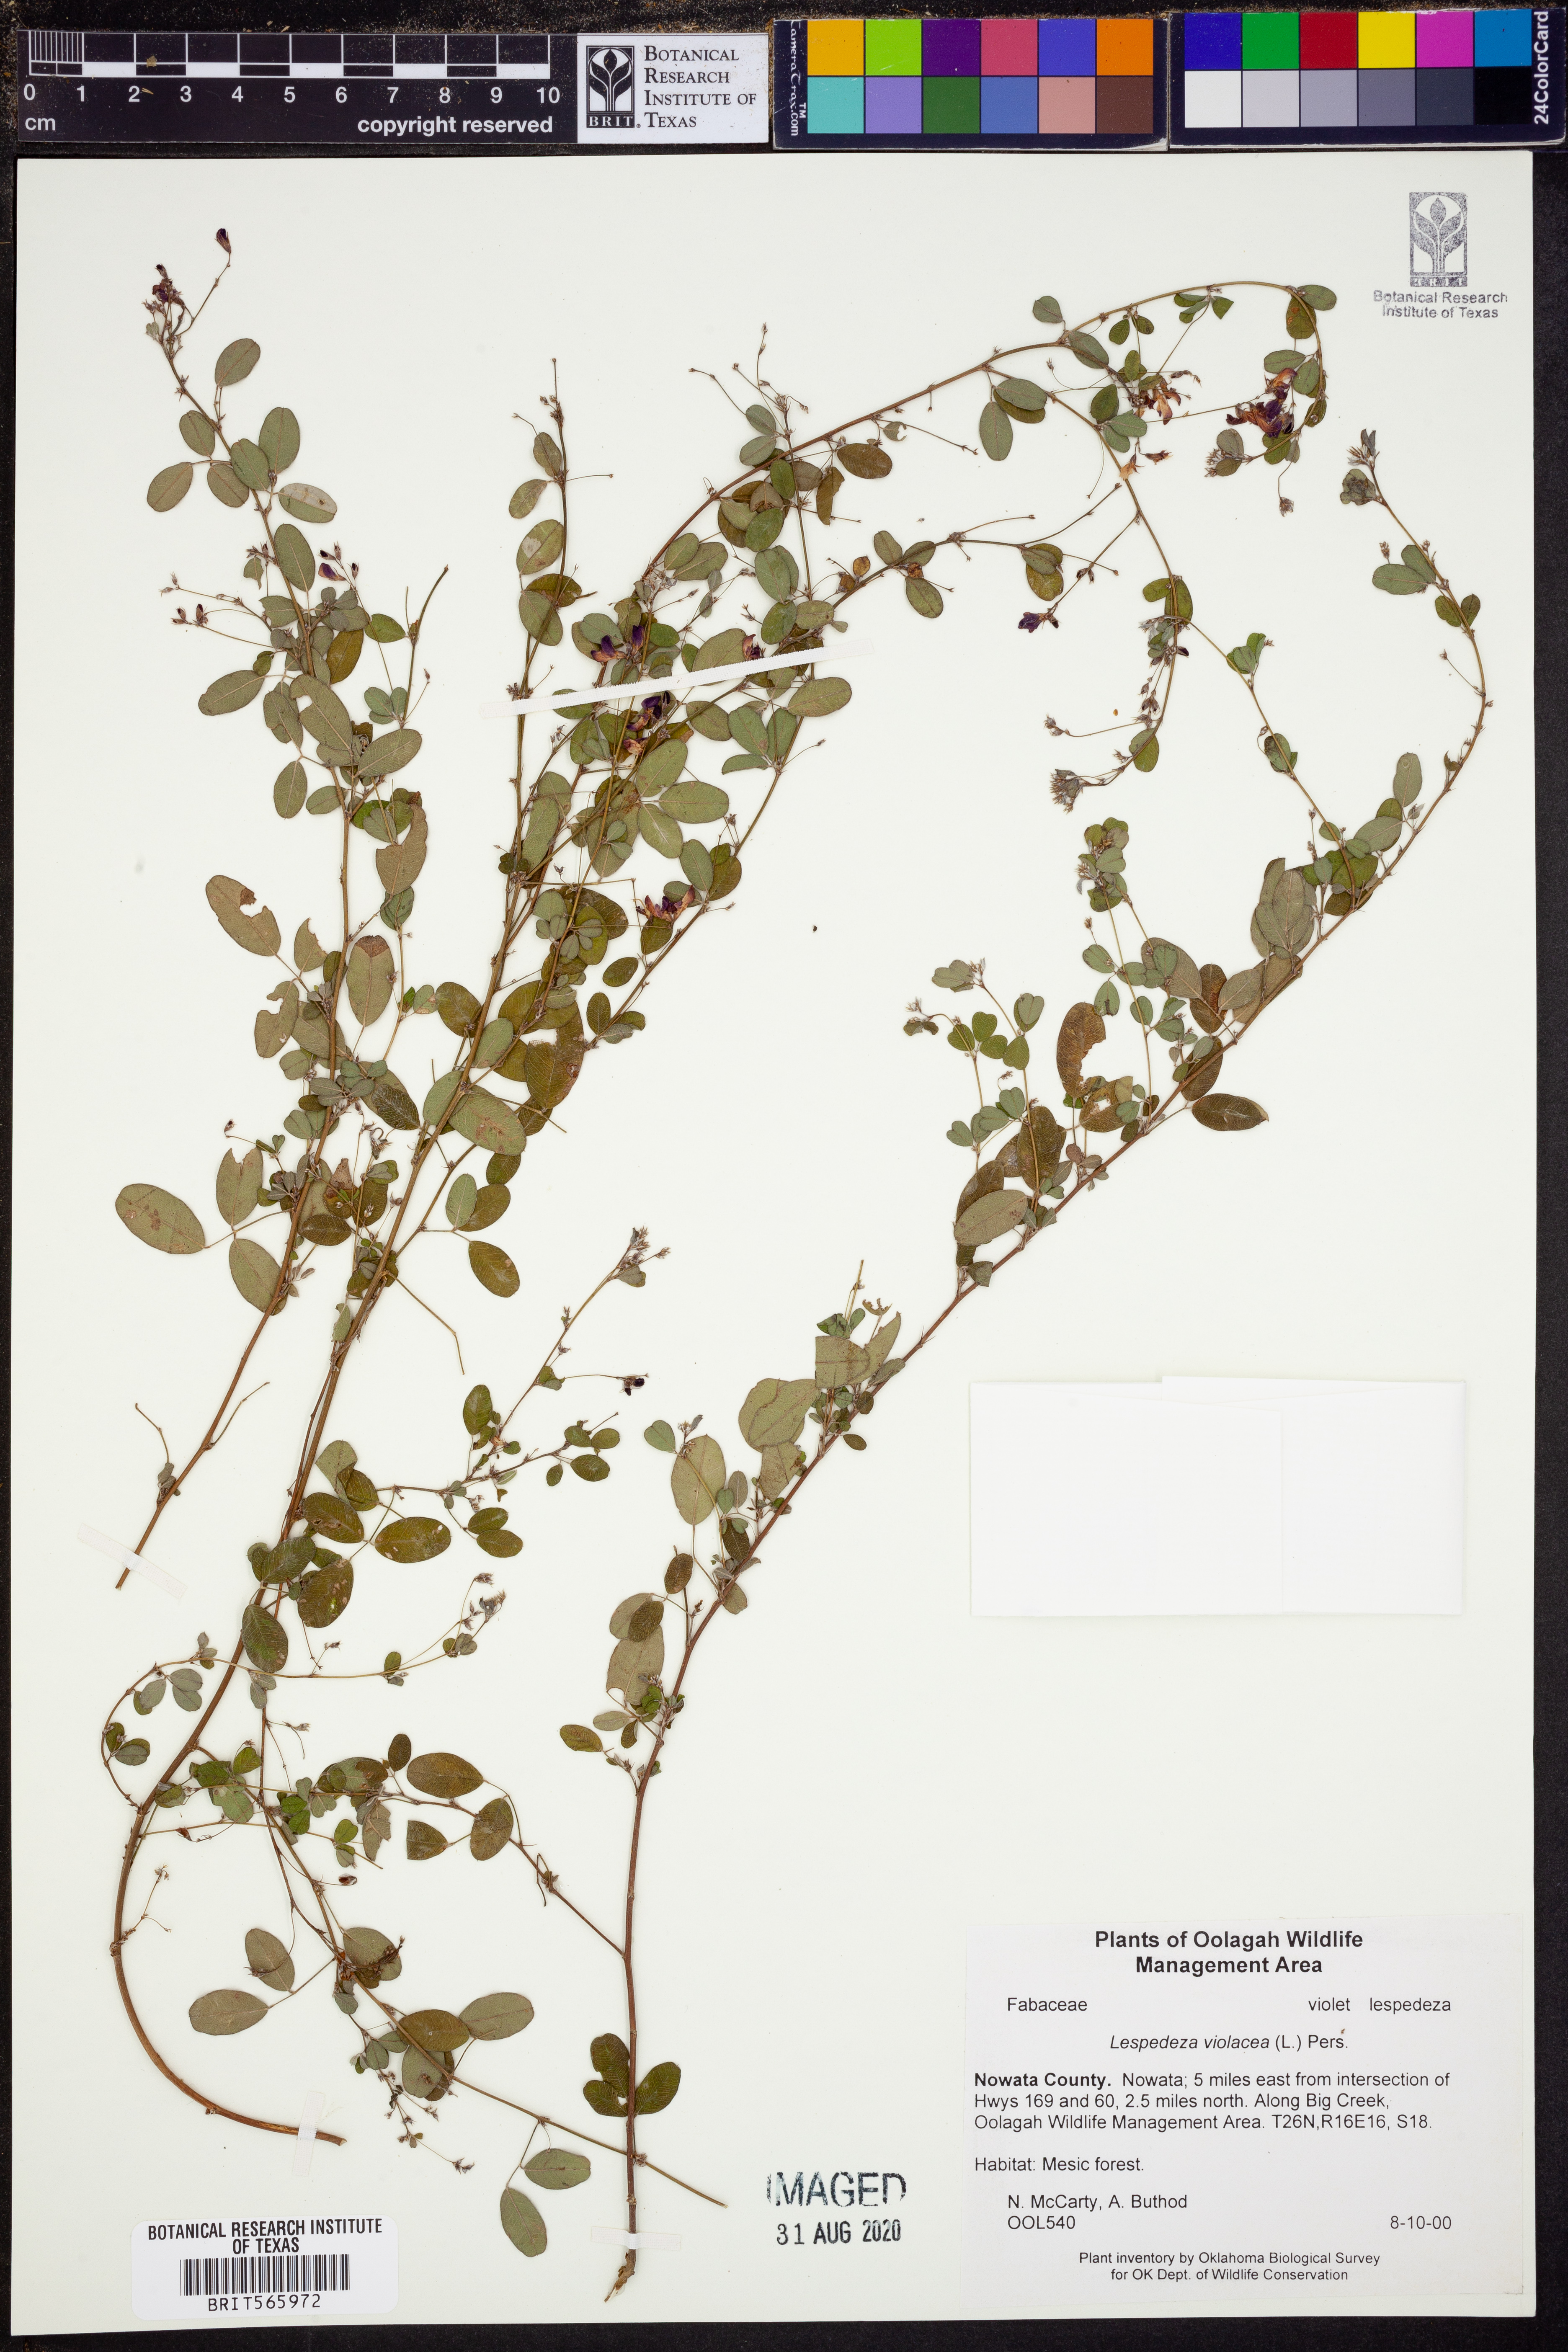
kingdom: Plantae
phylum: Tracheophyta
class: Magnoliopsida
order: Fabales
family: Fabaceae
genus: Lespedeza
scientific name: Lespedeza violacea
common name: Wand bush-clover
